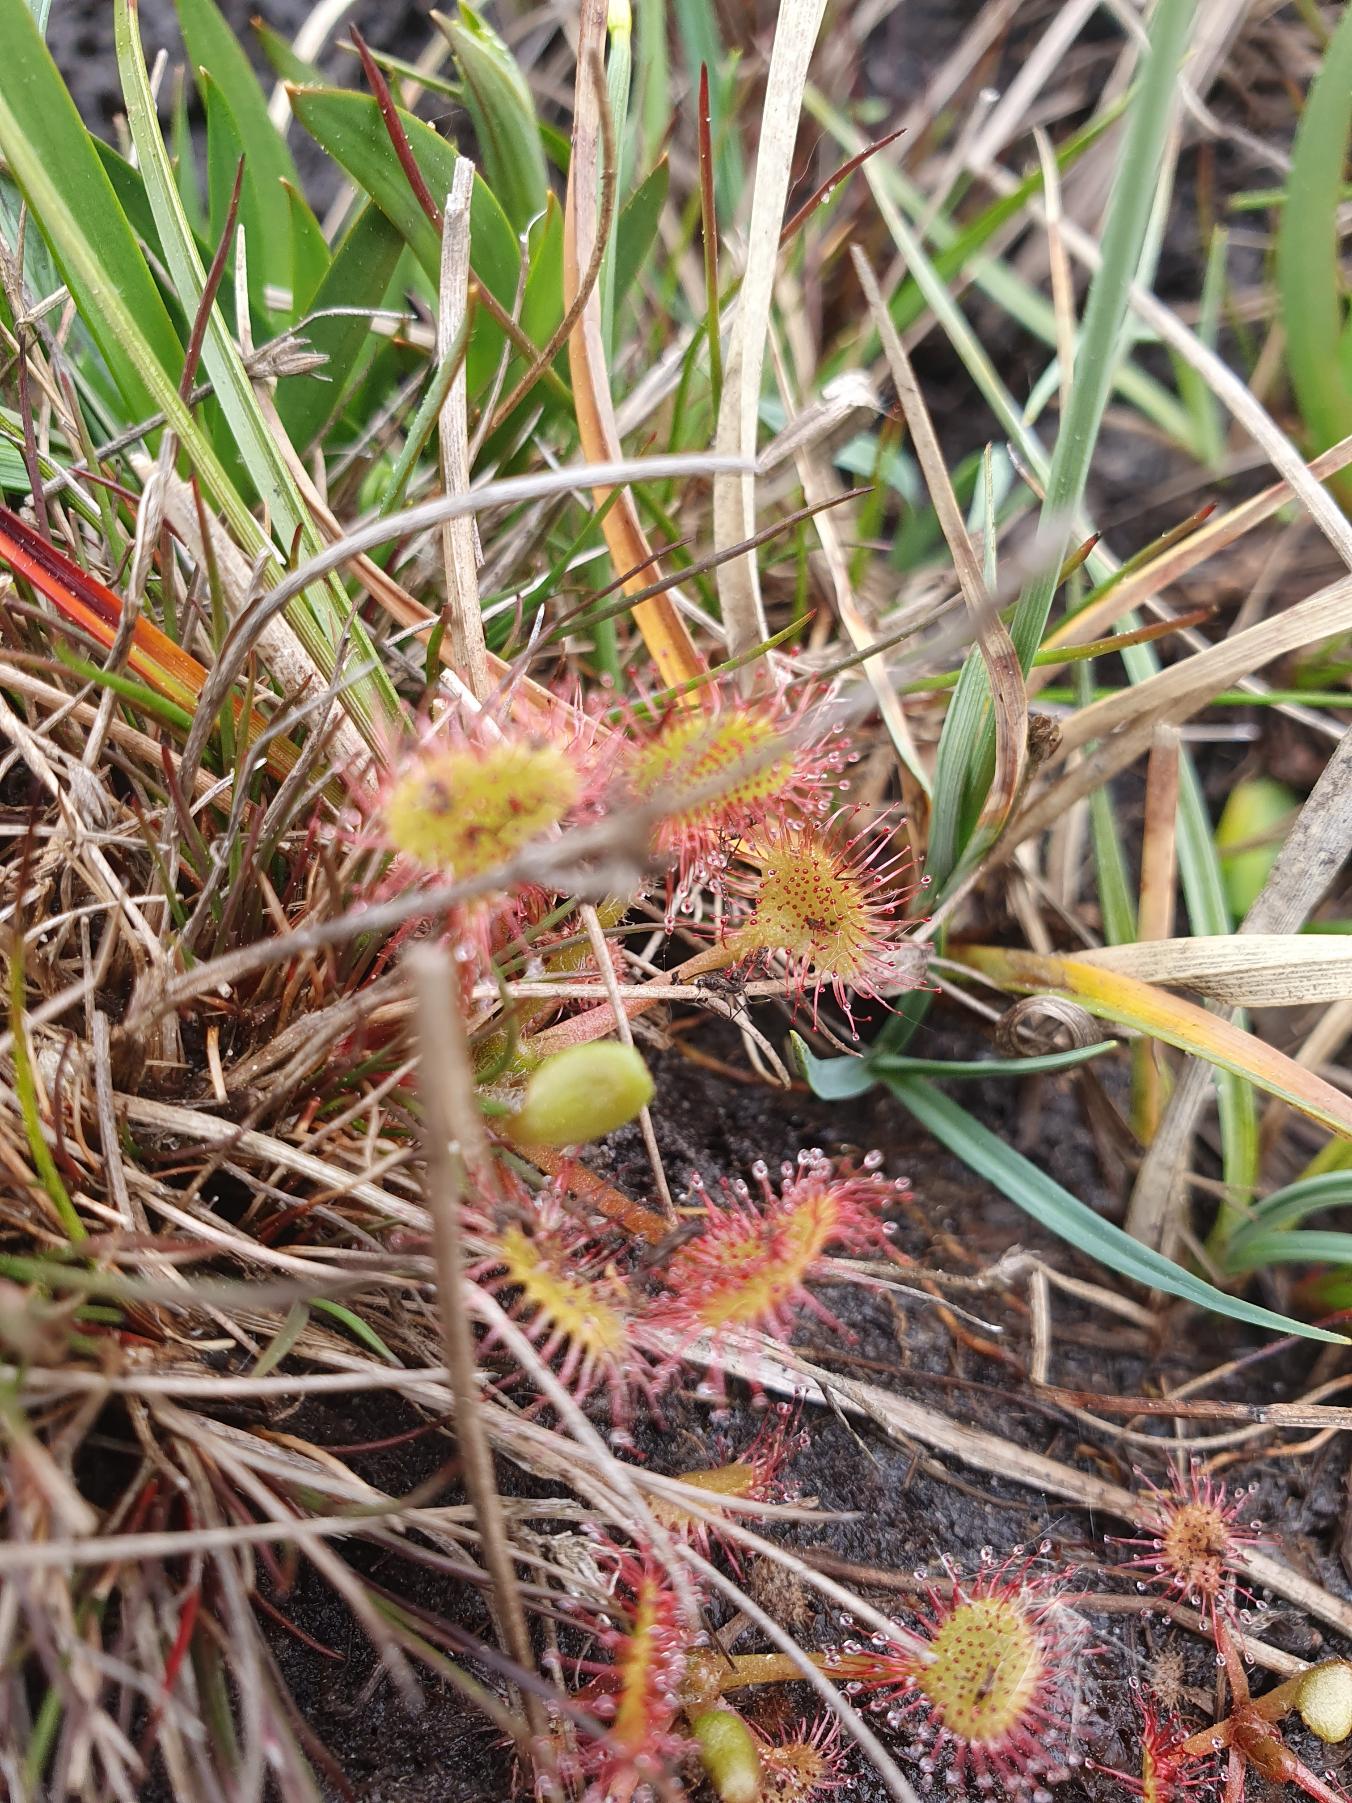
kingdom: Plantae
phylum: Tracheophyta
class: Magnoliopsida
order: Caryophyllales
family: Droseraceae
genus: Drosera
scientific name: Drosera rotundifolia
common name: Rundbladet soldug
